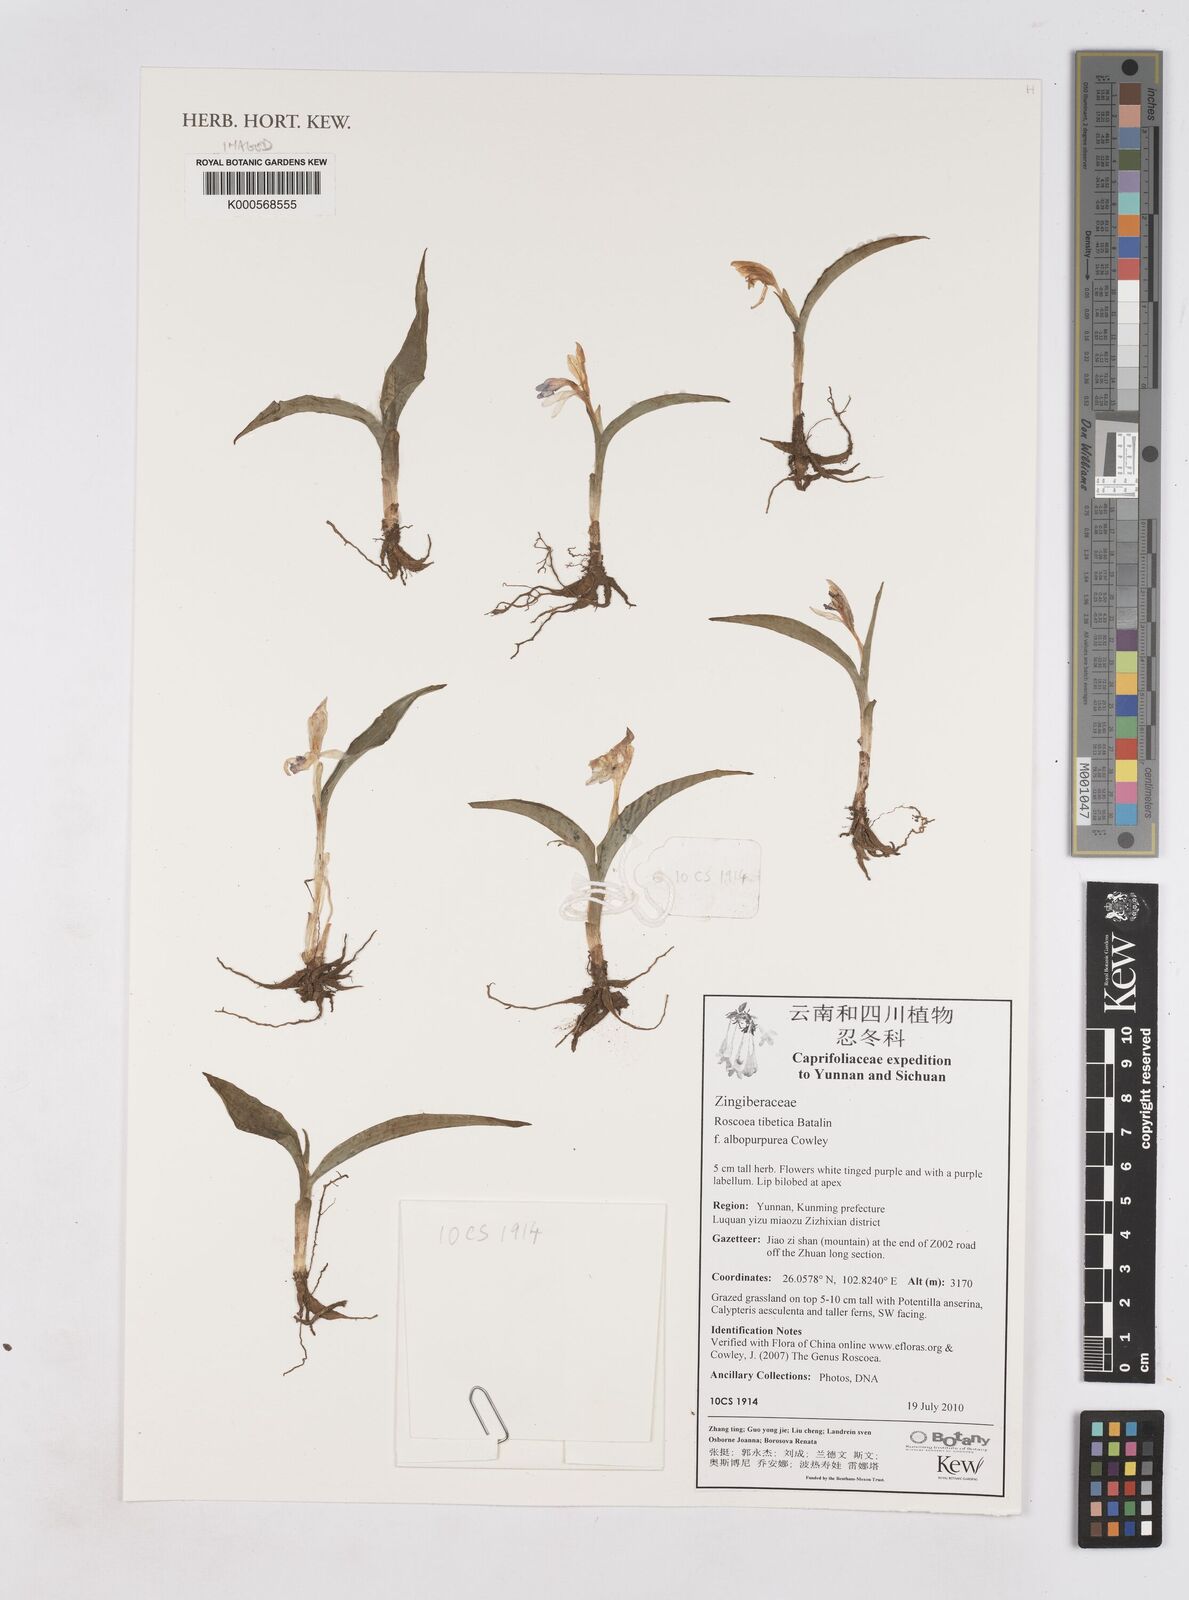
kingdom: Plantae
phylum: Tracheophyta
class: Liliopsida
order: Zingiberales
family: Zingiberaceae
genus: Roscoea
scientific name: Roscoea tibetica
